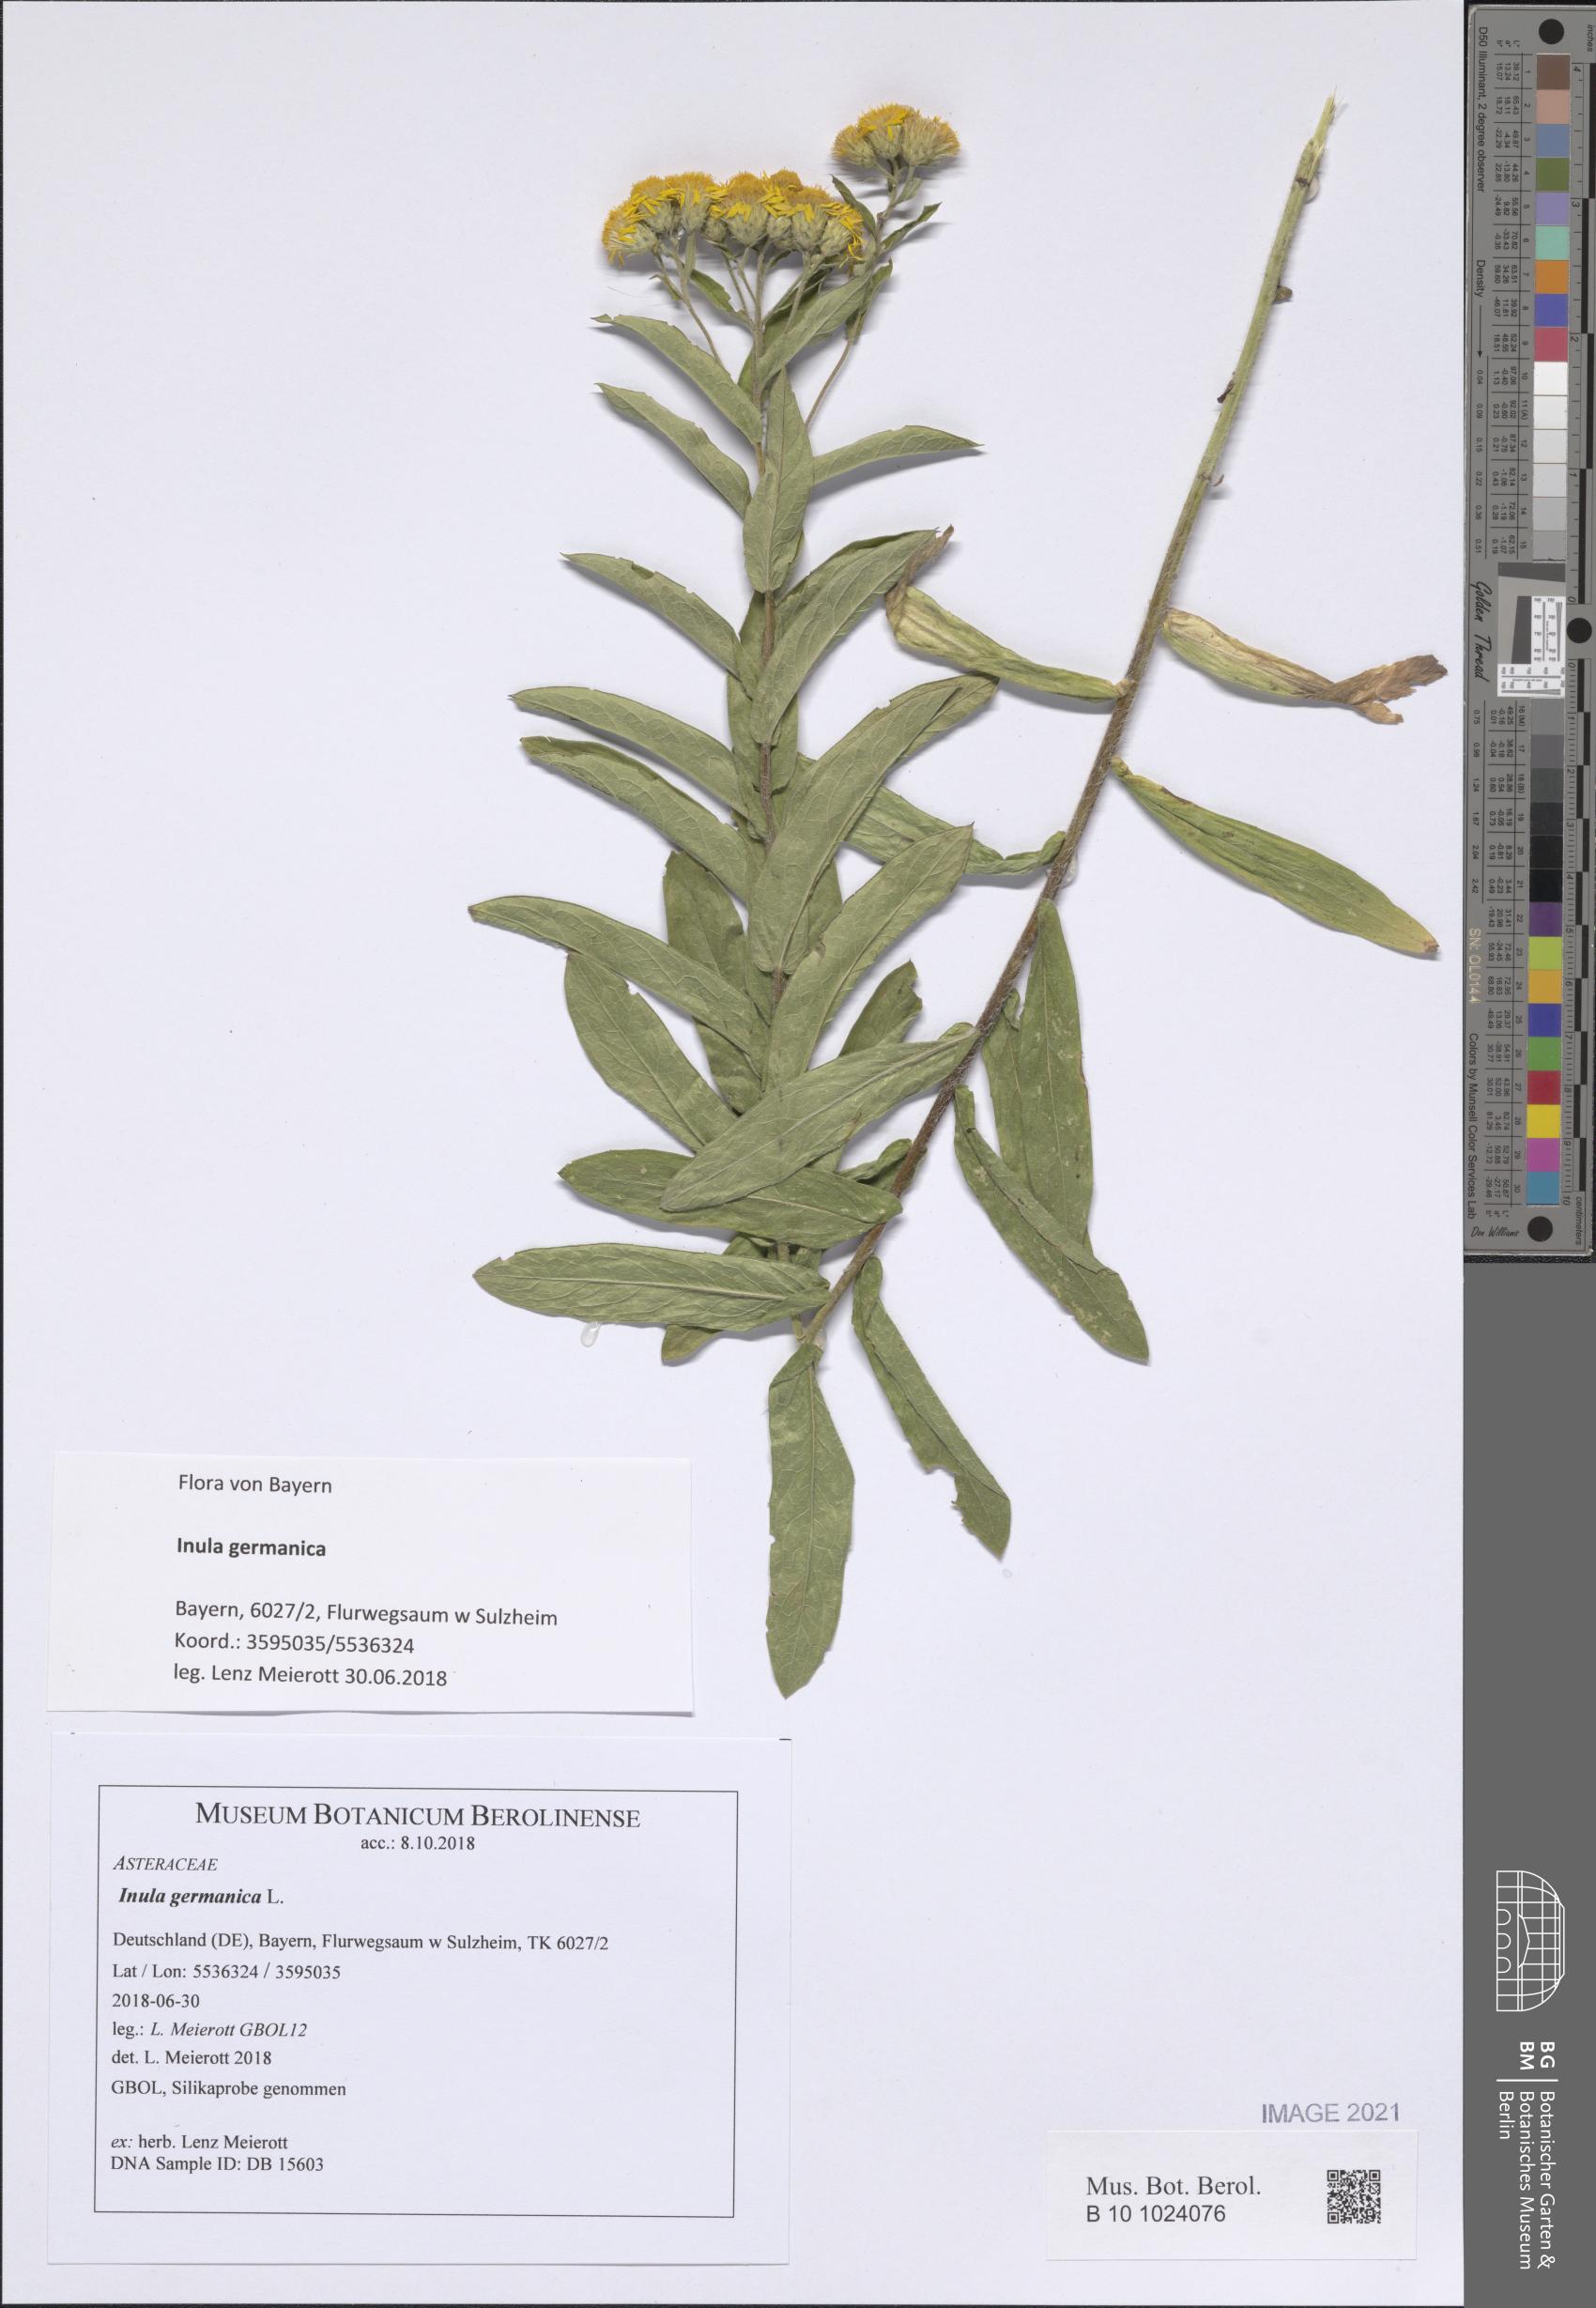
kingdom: Plantae
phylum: Tracheophyta
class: Magnoliopsida
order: Asterales
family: Asteraceae
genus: Pentanema
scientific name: Pentanema germanicum
